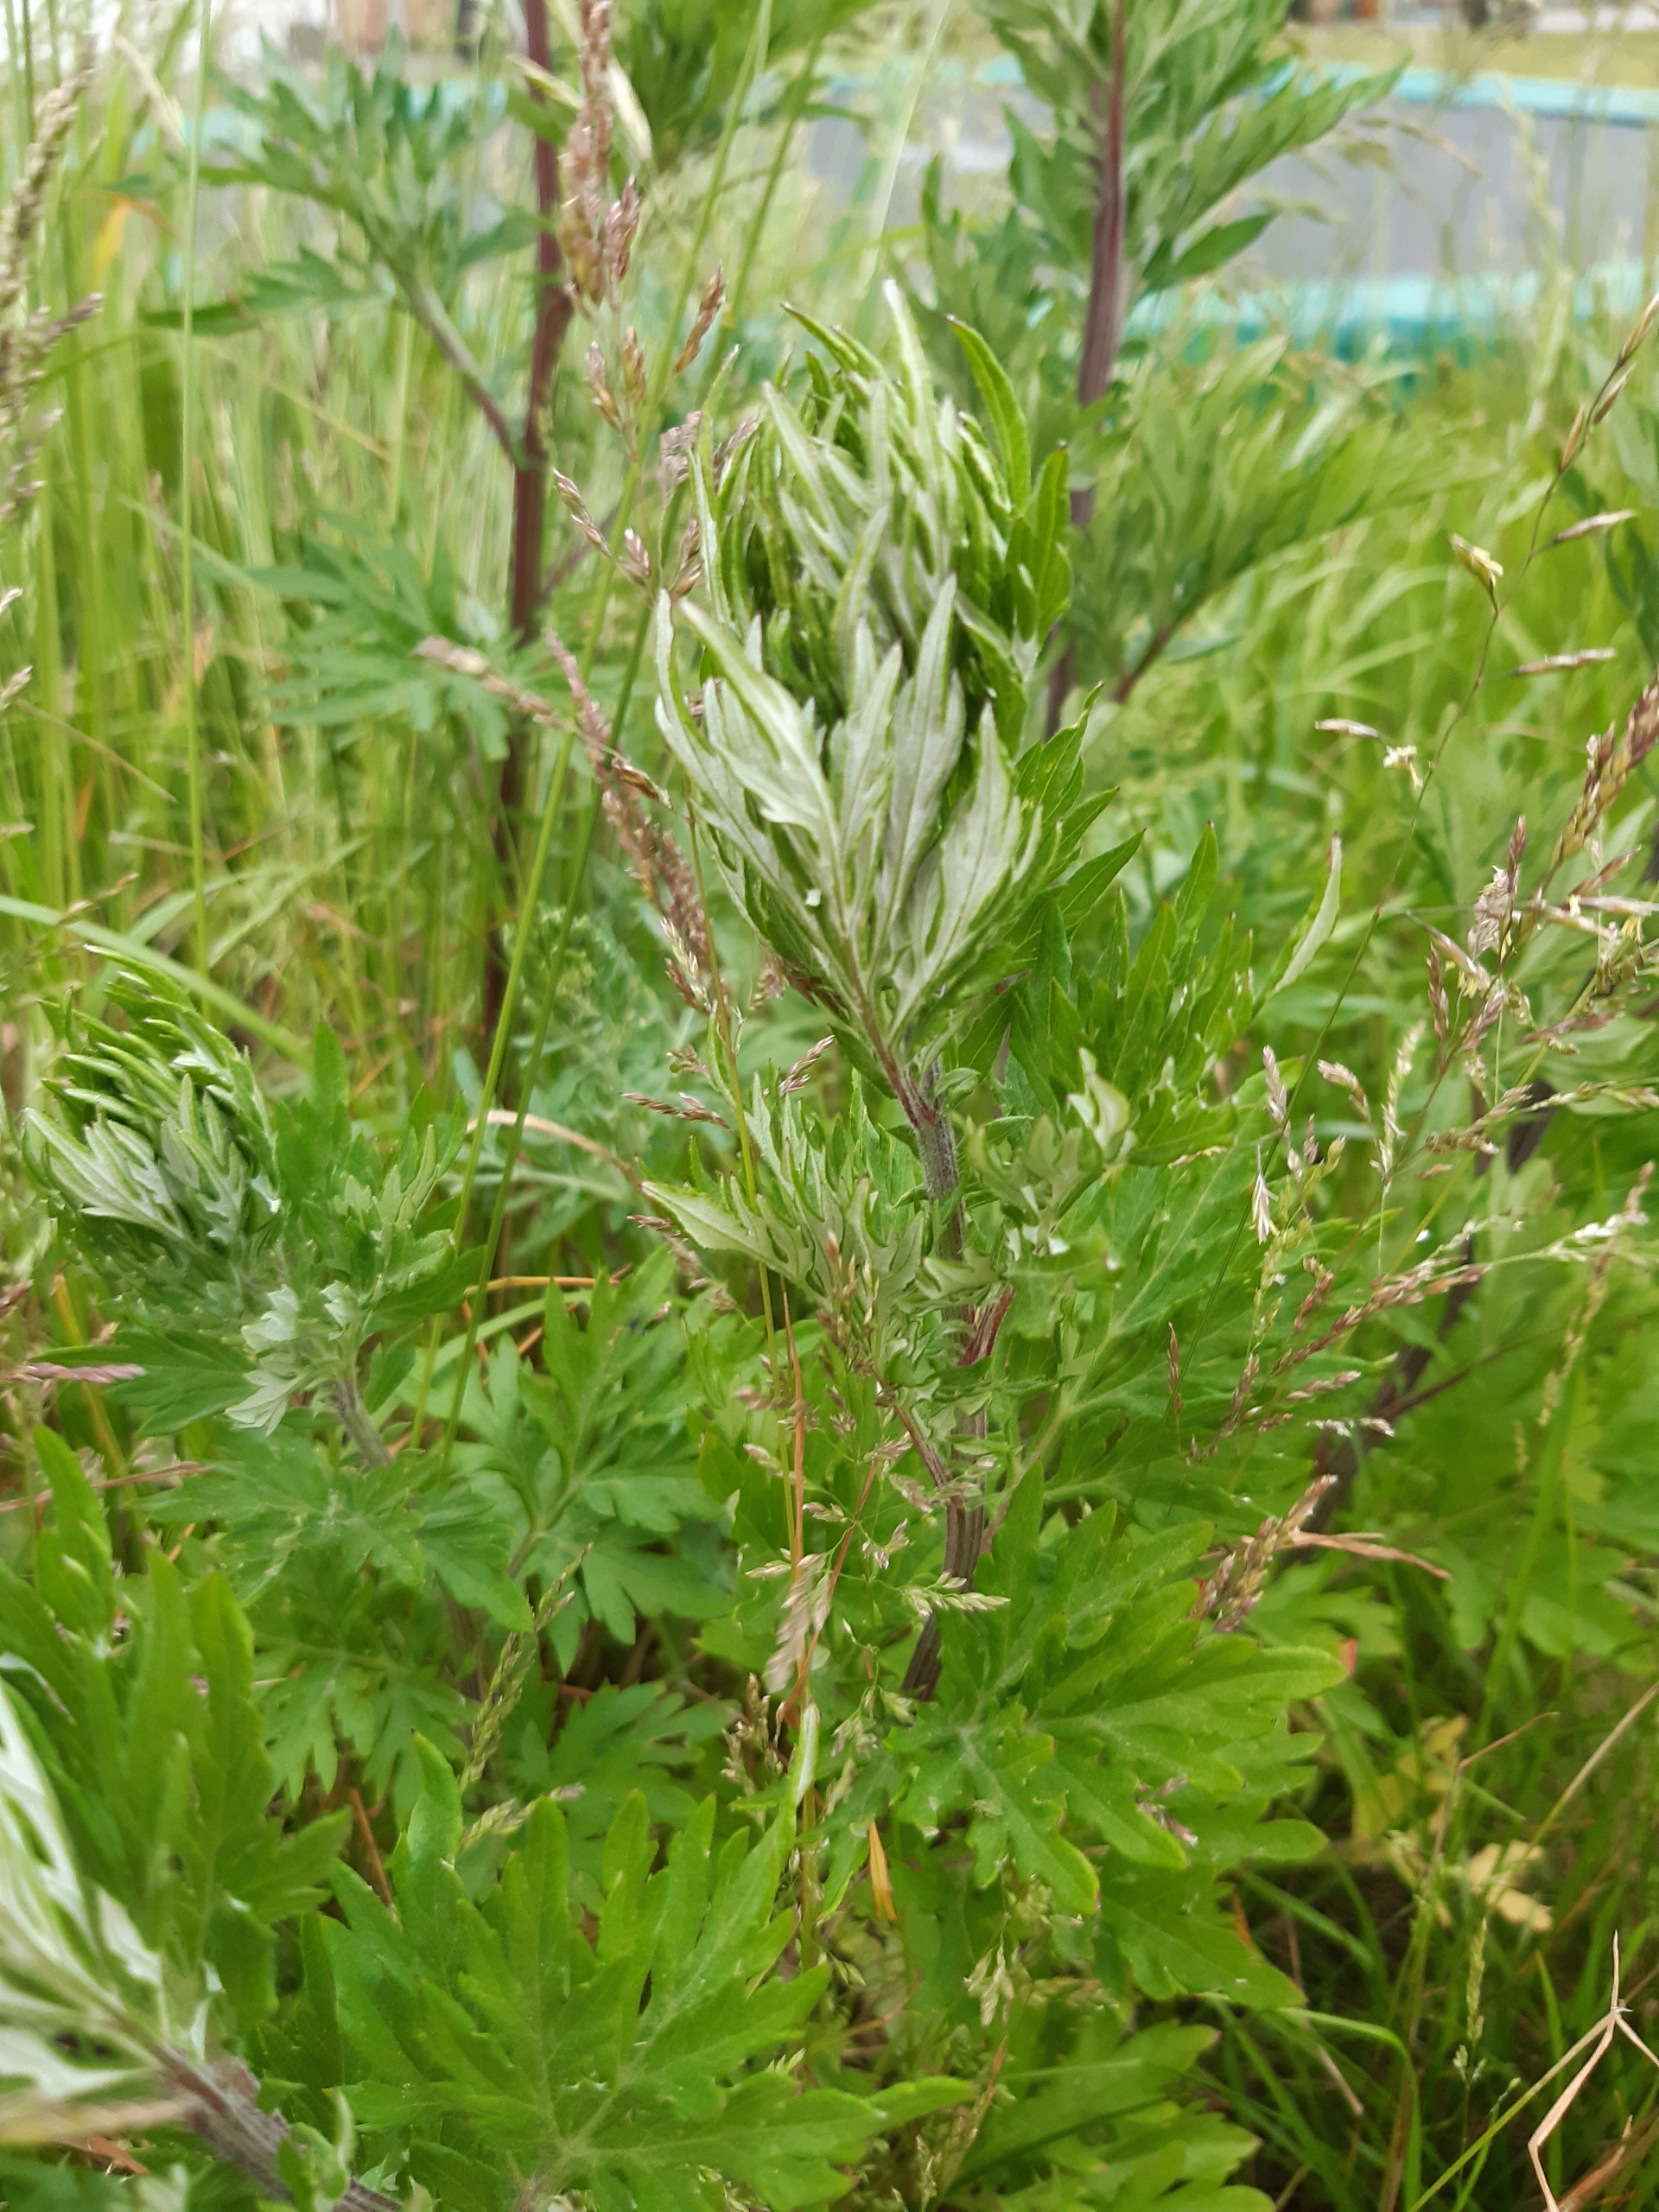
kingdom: Plantae
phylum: Tracheophyta
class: Magnoliopsida
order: Asterales
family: Asteraceae
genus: Artemisia
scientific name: Artemisia vulgaris
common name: Grå-bynke
